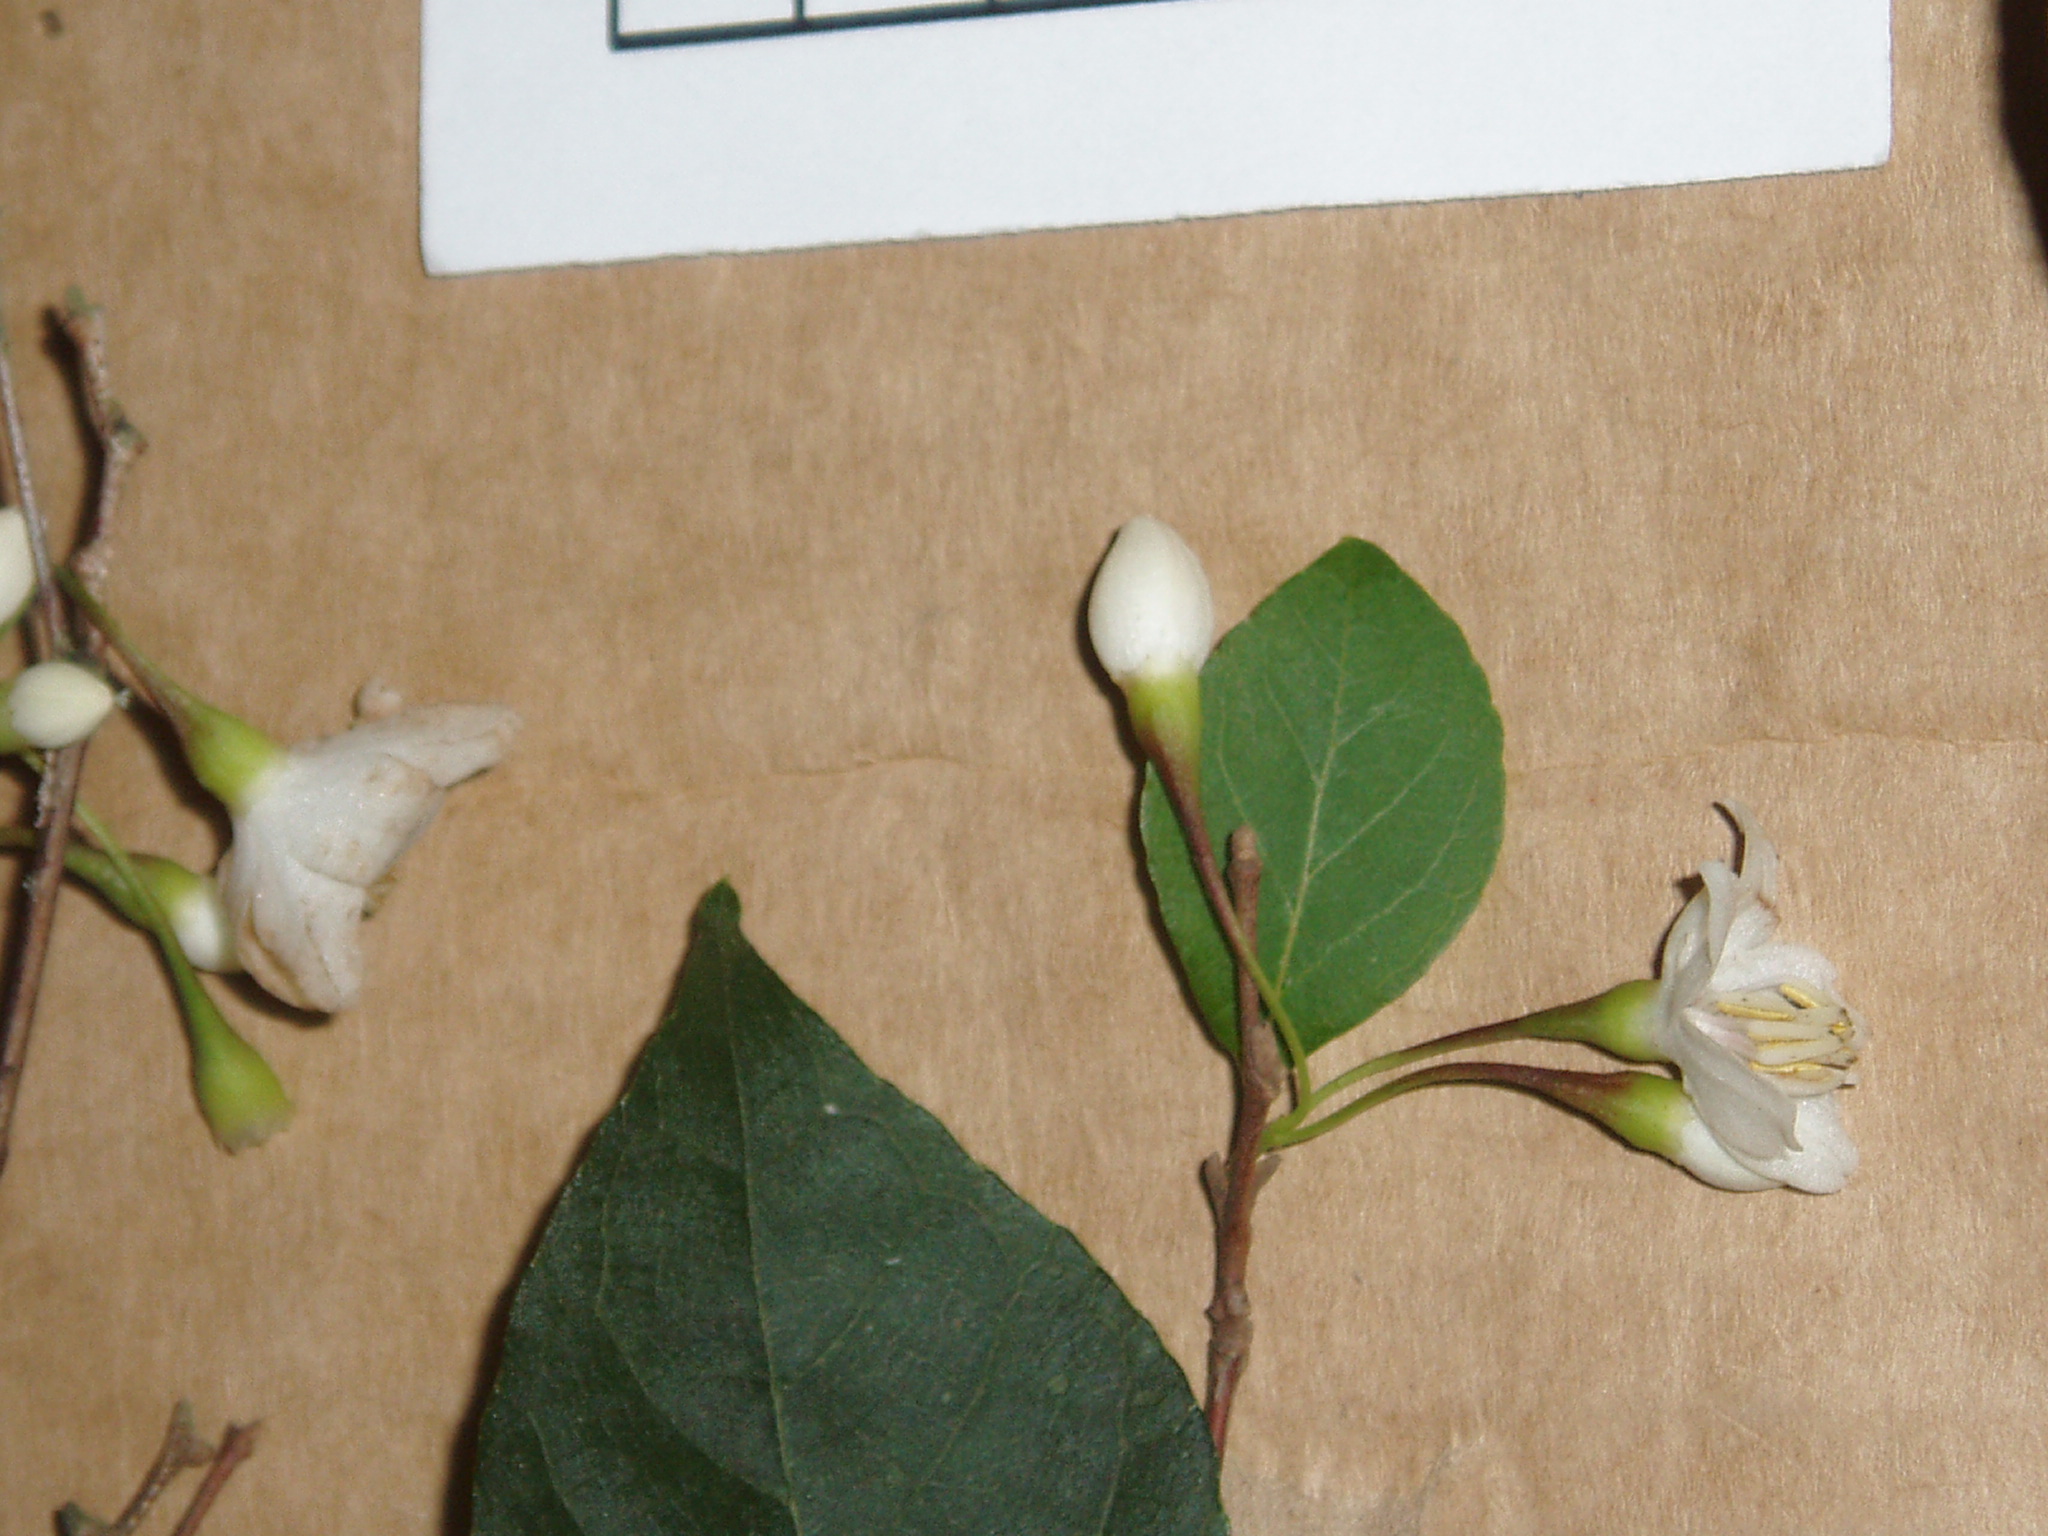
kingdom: Plantae
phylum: Tracheophyta
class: Magnoliopsida
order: Ericales
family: Styracaceae
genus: Styrax
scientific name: Styrax japonicus
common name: Japanese snowbell
